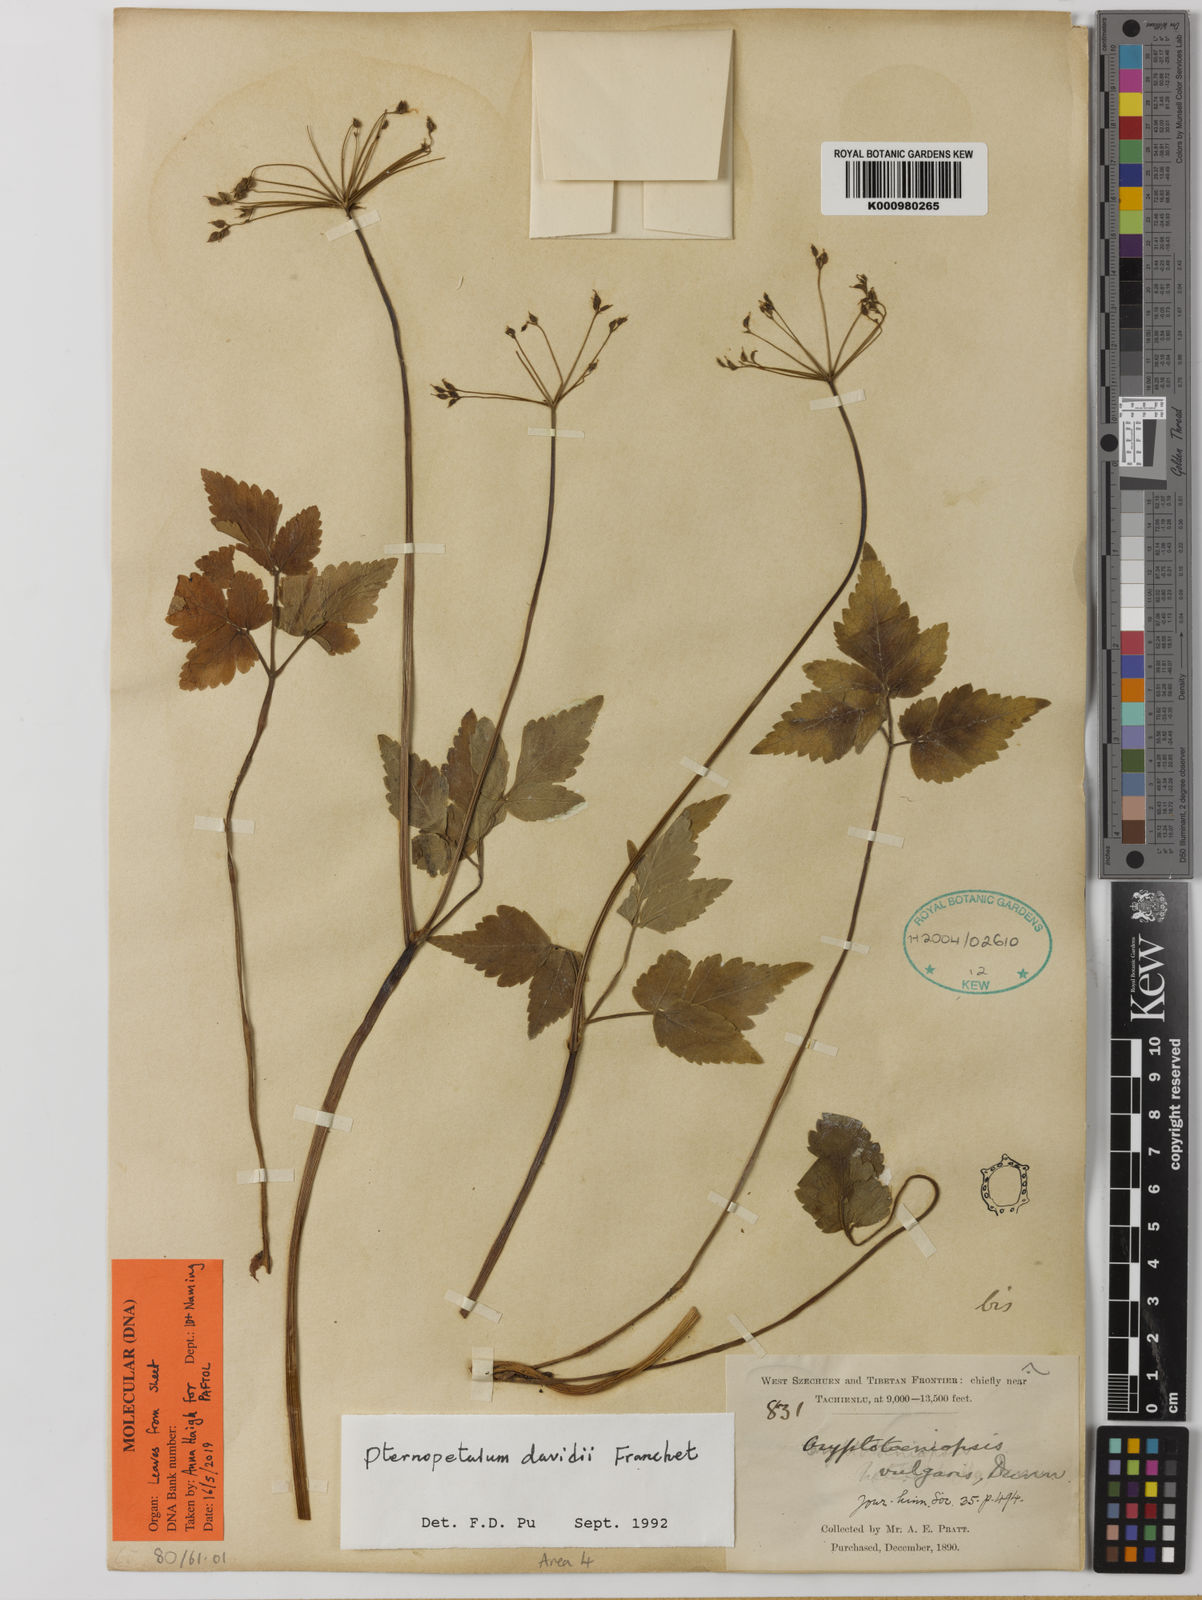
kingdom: Plantae
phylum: Tracheophyta
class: Magnoliopsida
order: Apiales
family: Apiaceae
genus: Pternopetalum
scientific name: Pternopetalum davidi
